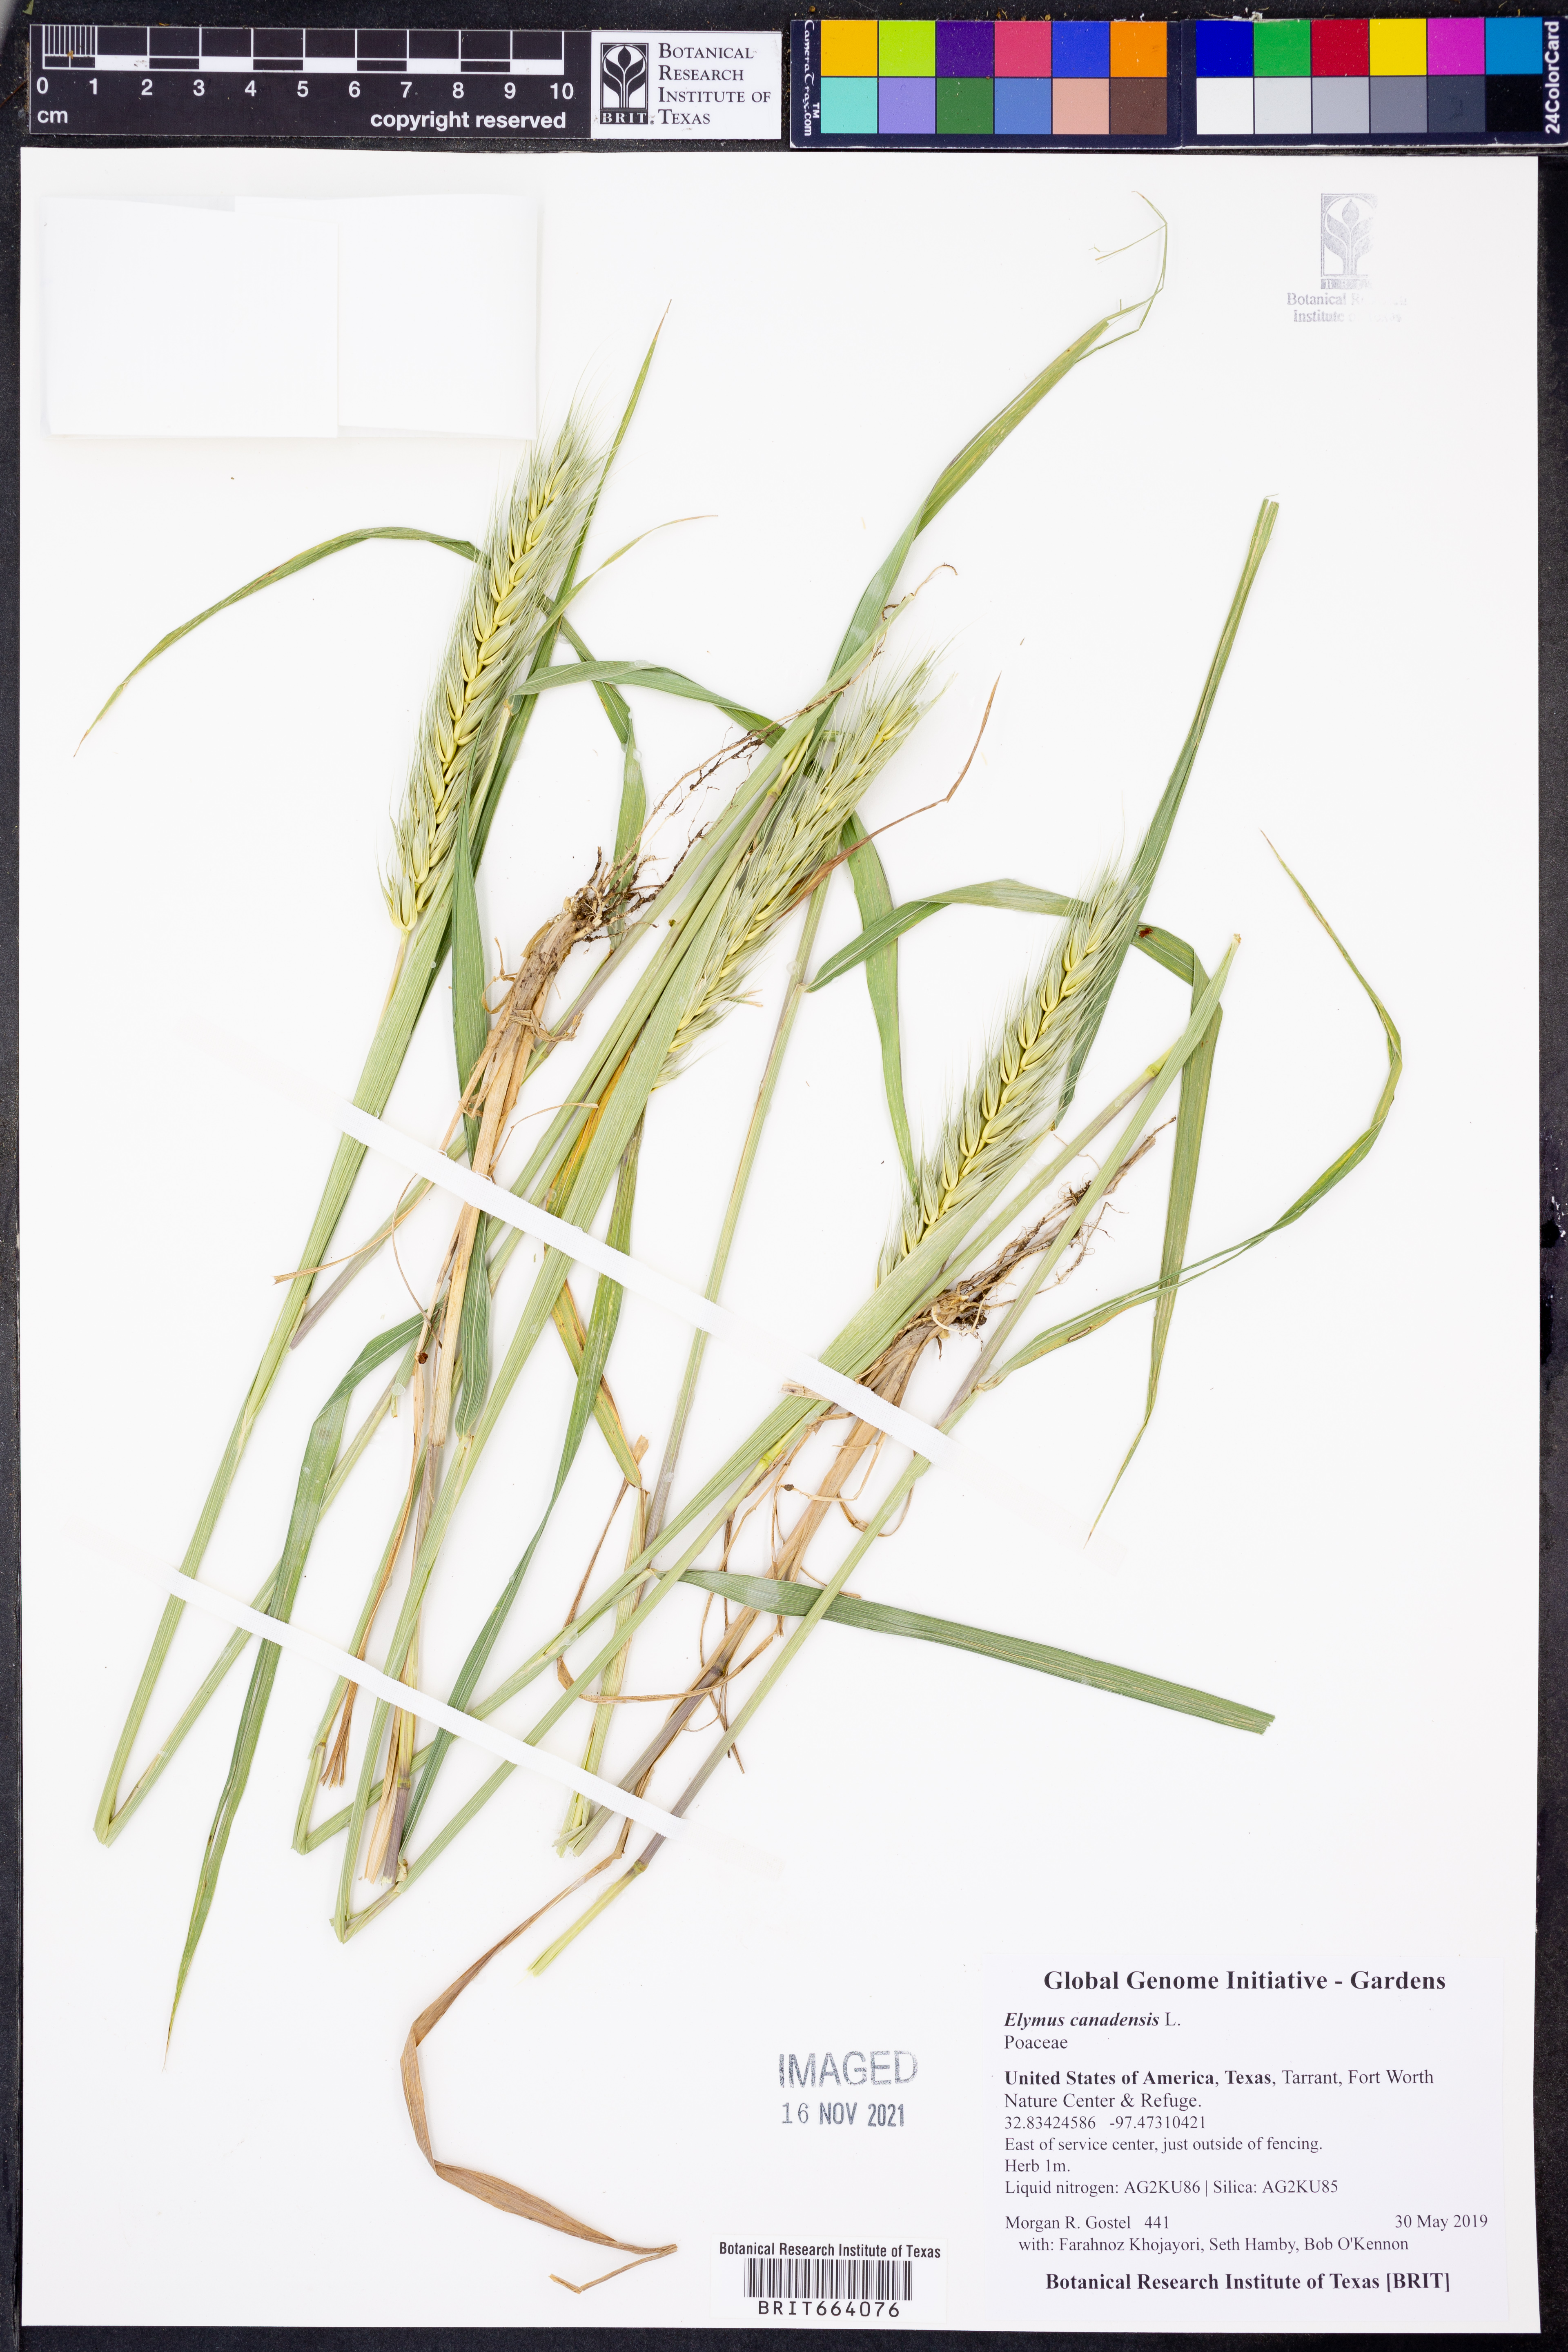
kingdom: Plantae
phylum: Tracheophyta
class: Liliopsida
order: Poales
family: Poaceae
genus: Elymus
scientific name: Elymus canadensis
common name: Canada wild rye
